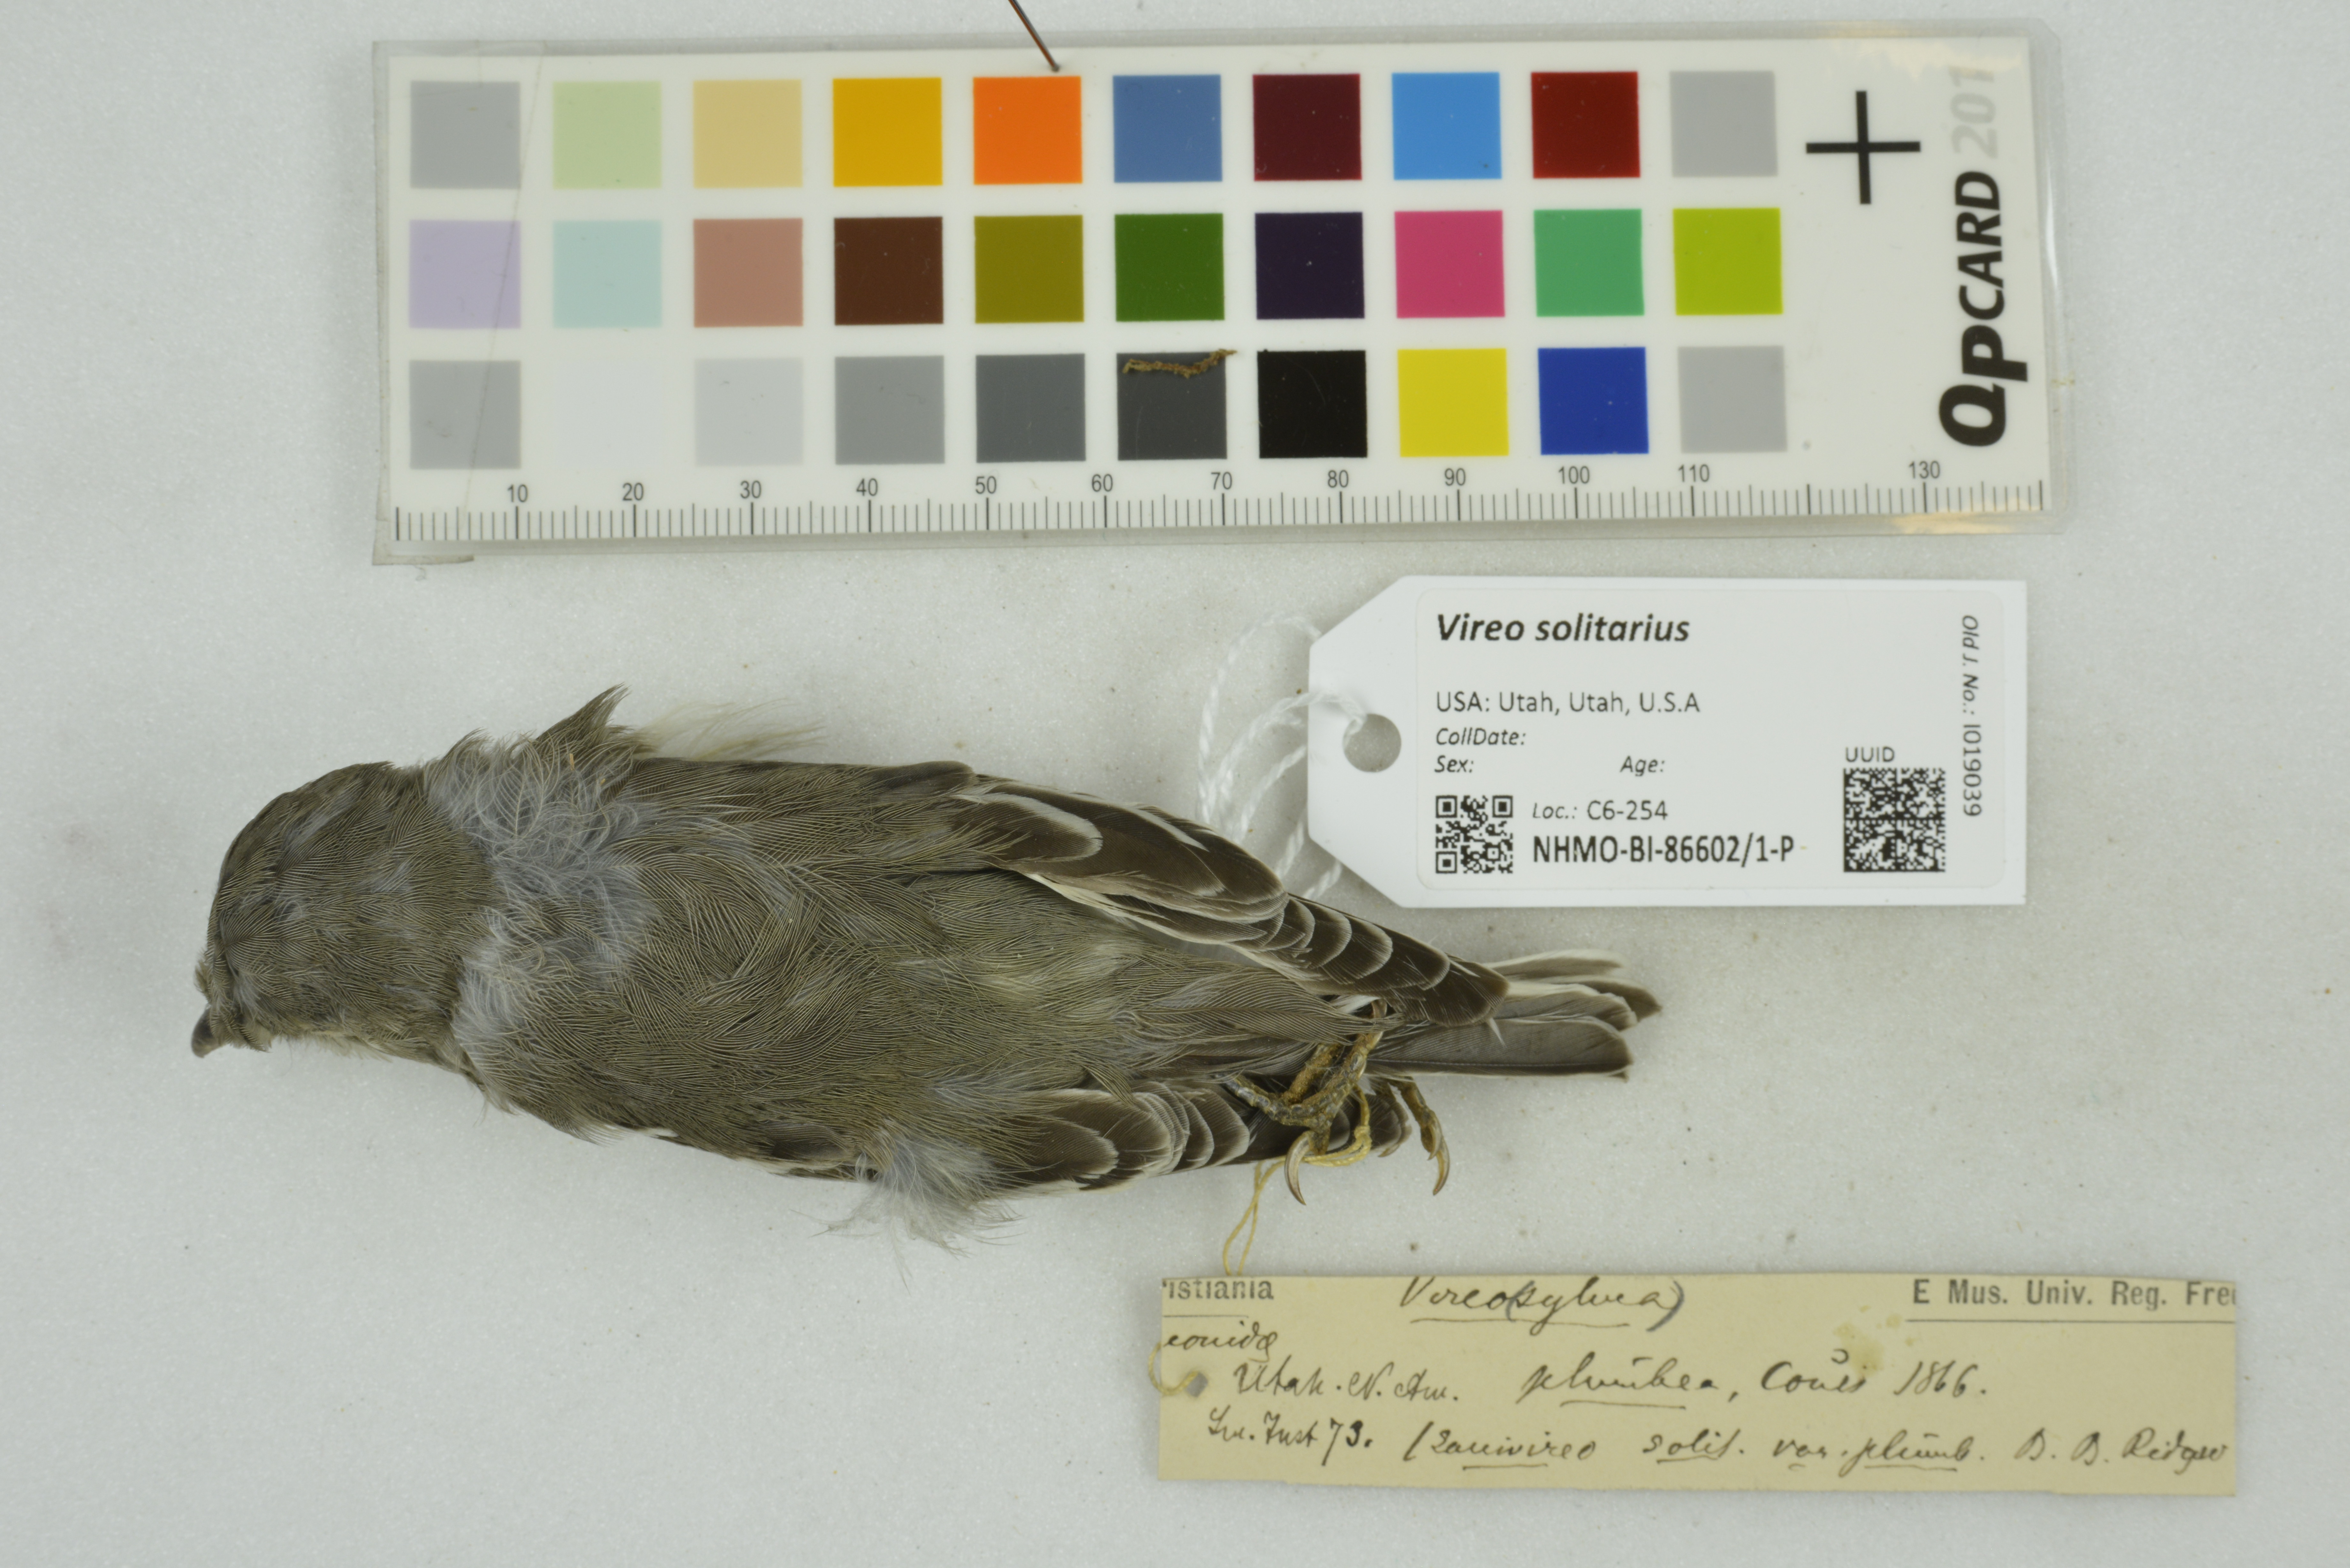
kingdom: Animalia
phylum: Chordata
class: Aves
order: Passeriformes
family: Vireonidae
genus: Vireo
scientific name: Vireo solitarius
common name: Blue-headed vireo
